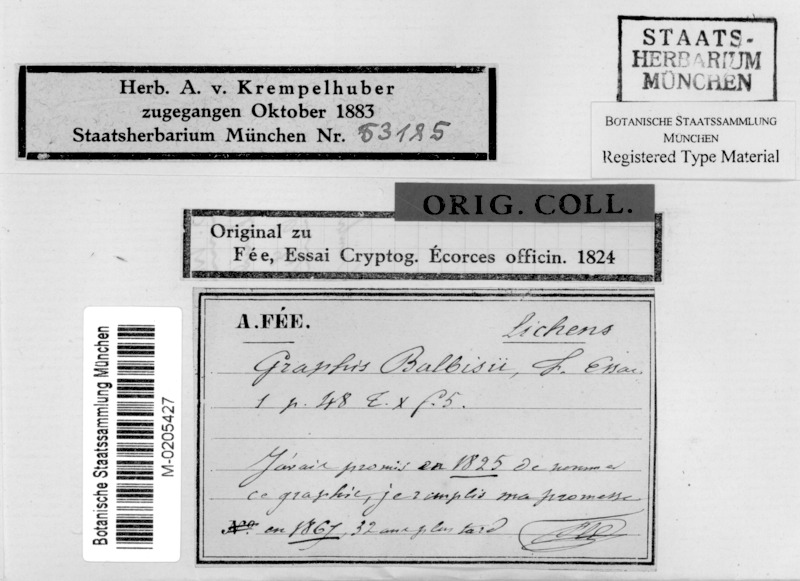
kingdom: Fungi
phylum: Ascomycota
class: Lecanoromycetes
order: Ostropales
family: Graphidaceae
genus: Allographa
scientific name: Allographa balbisii
